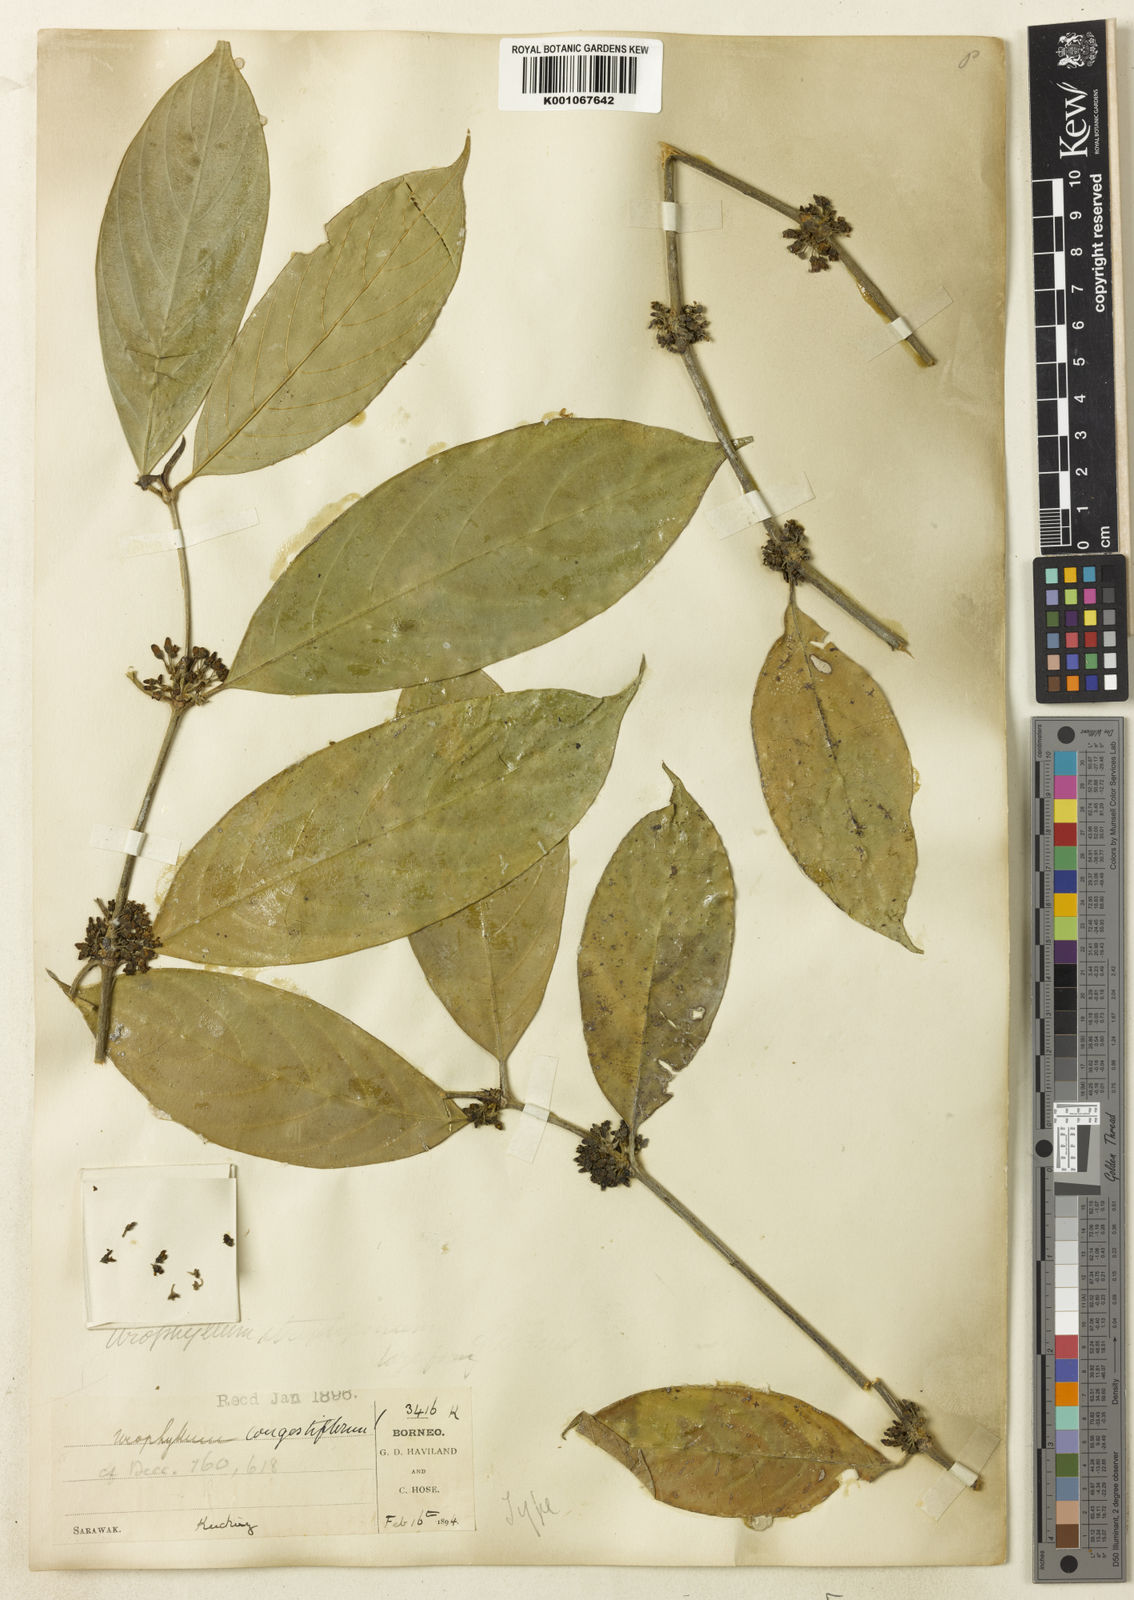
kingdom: Plantae
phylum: Tracheophyta
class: Magnoliopsida
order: Gentianales
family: Rubiaceae
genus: Urophyllum
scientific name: Urophyllum congestiflorum
